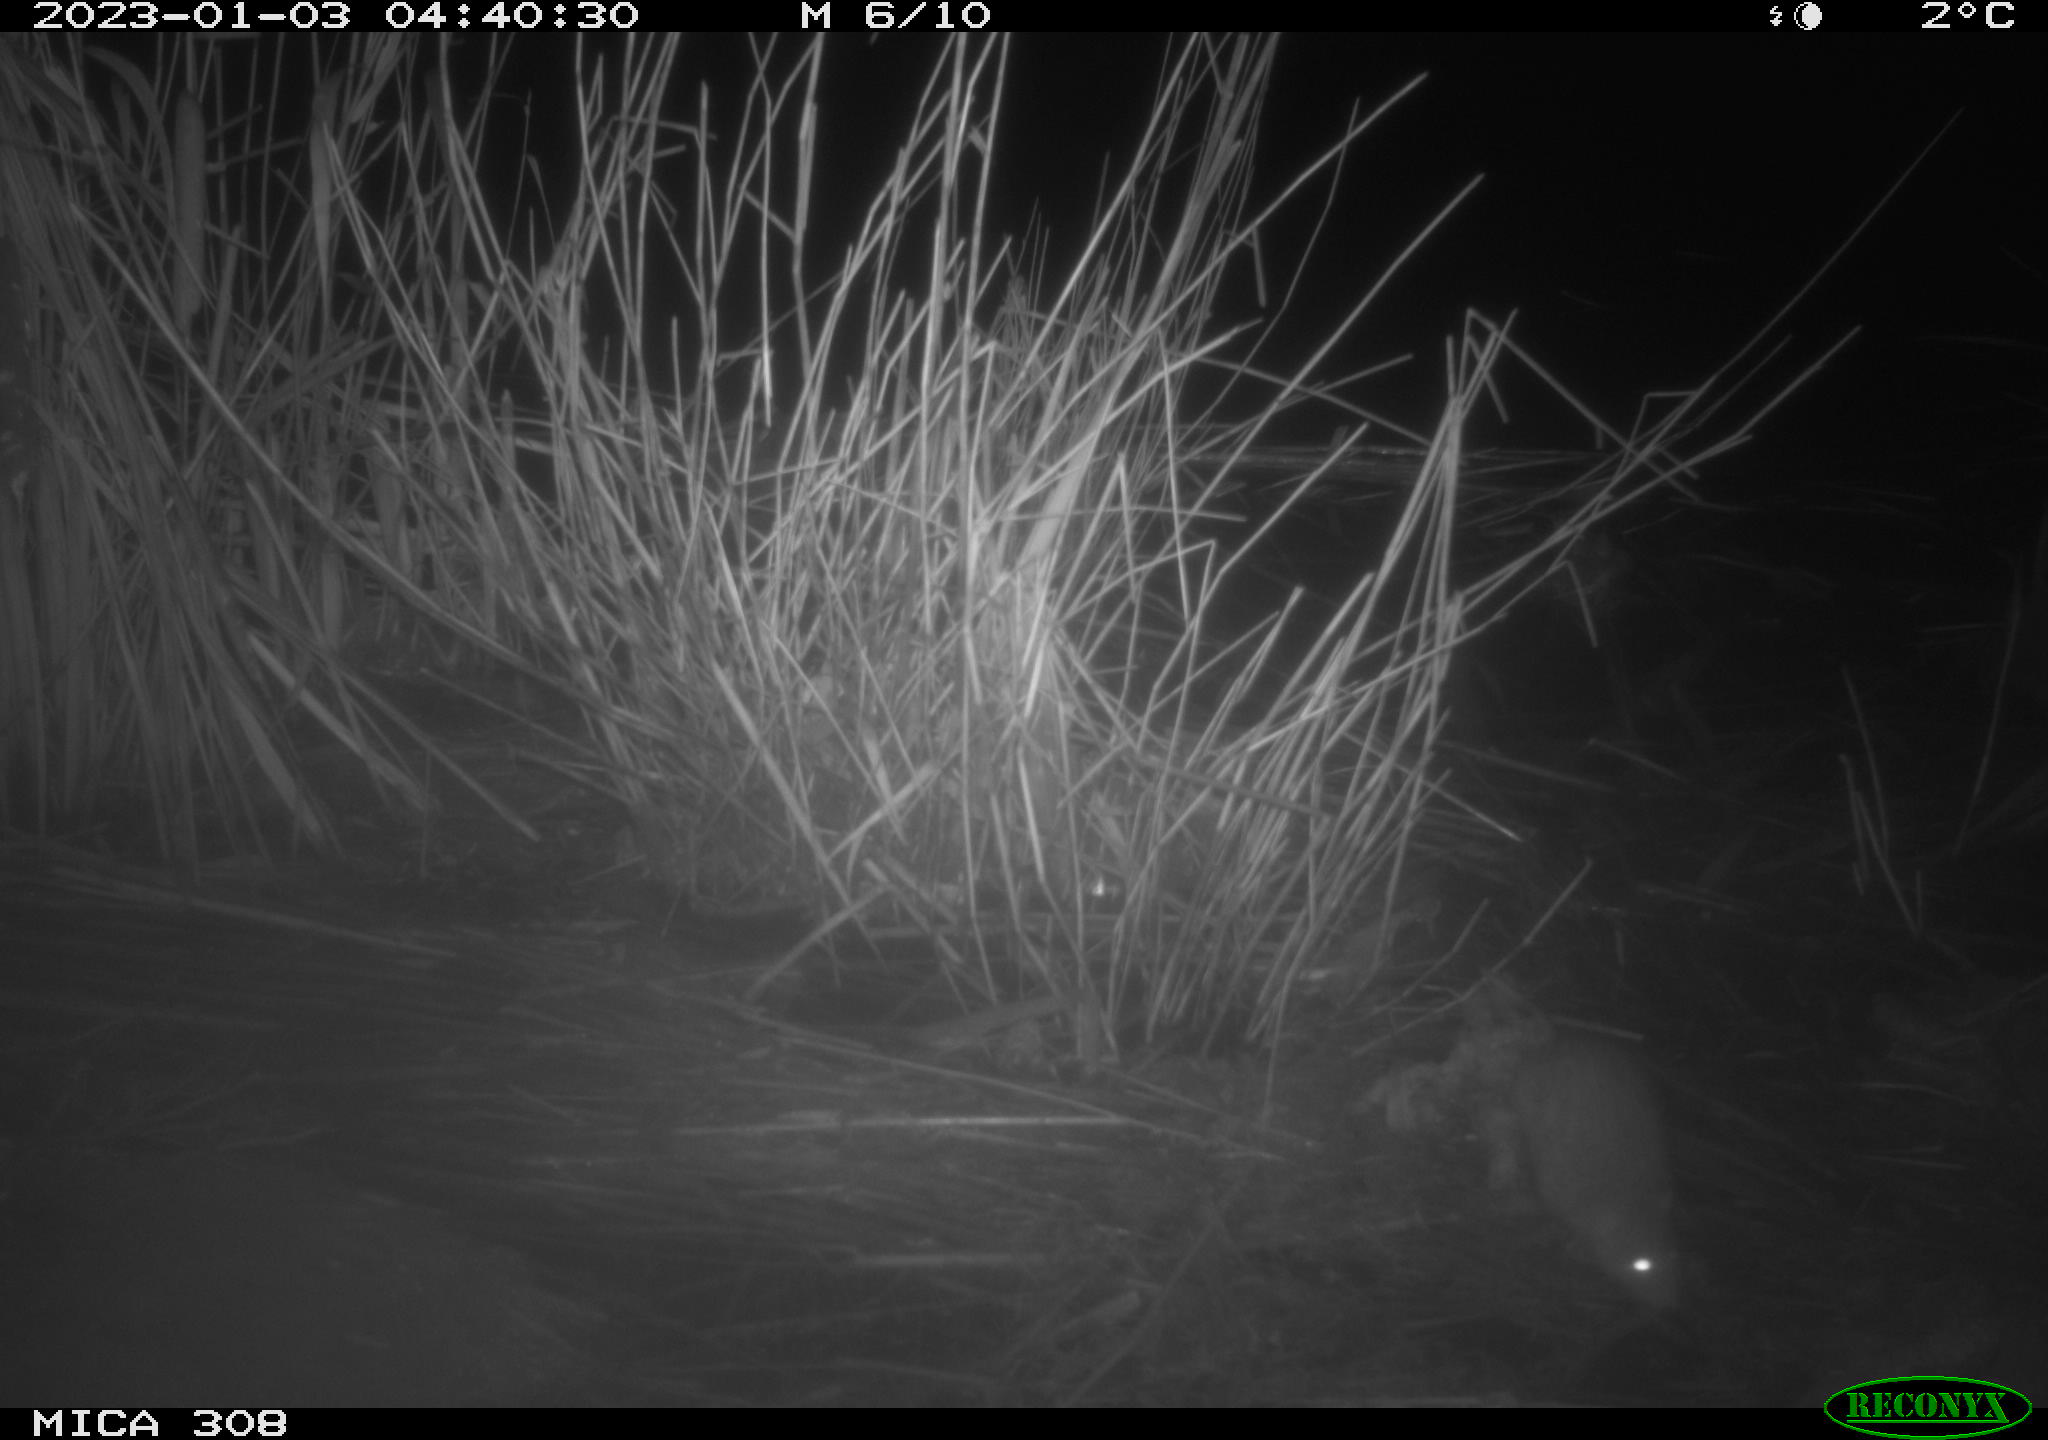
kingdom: Animalia
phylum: Chordata
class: Mammalia
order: Rodentia
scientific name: Rodentia
